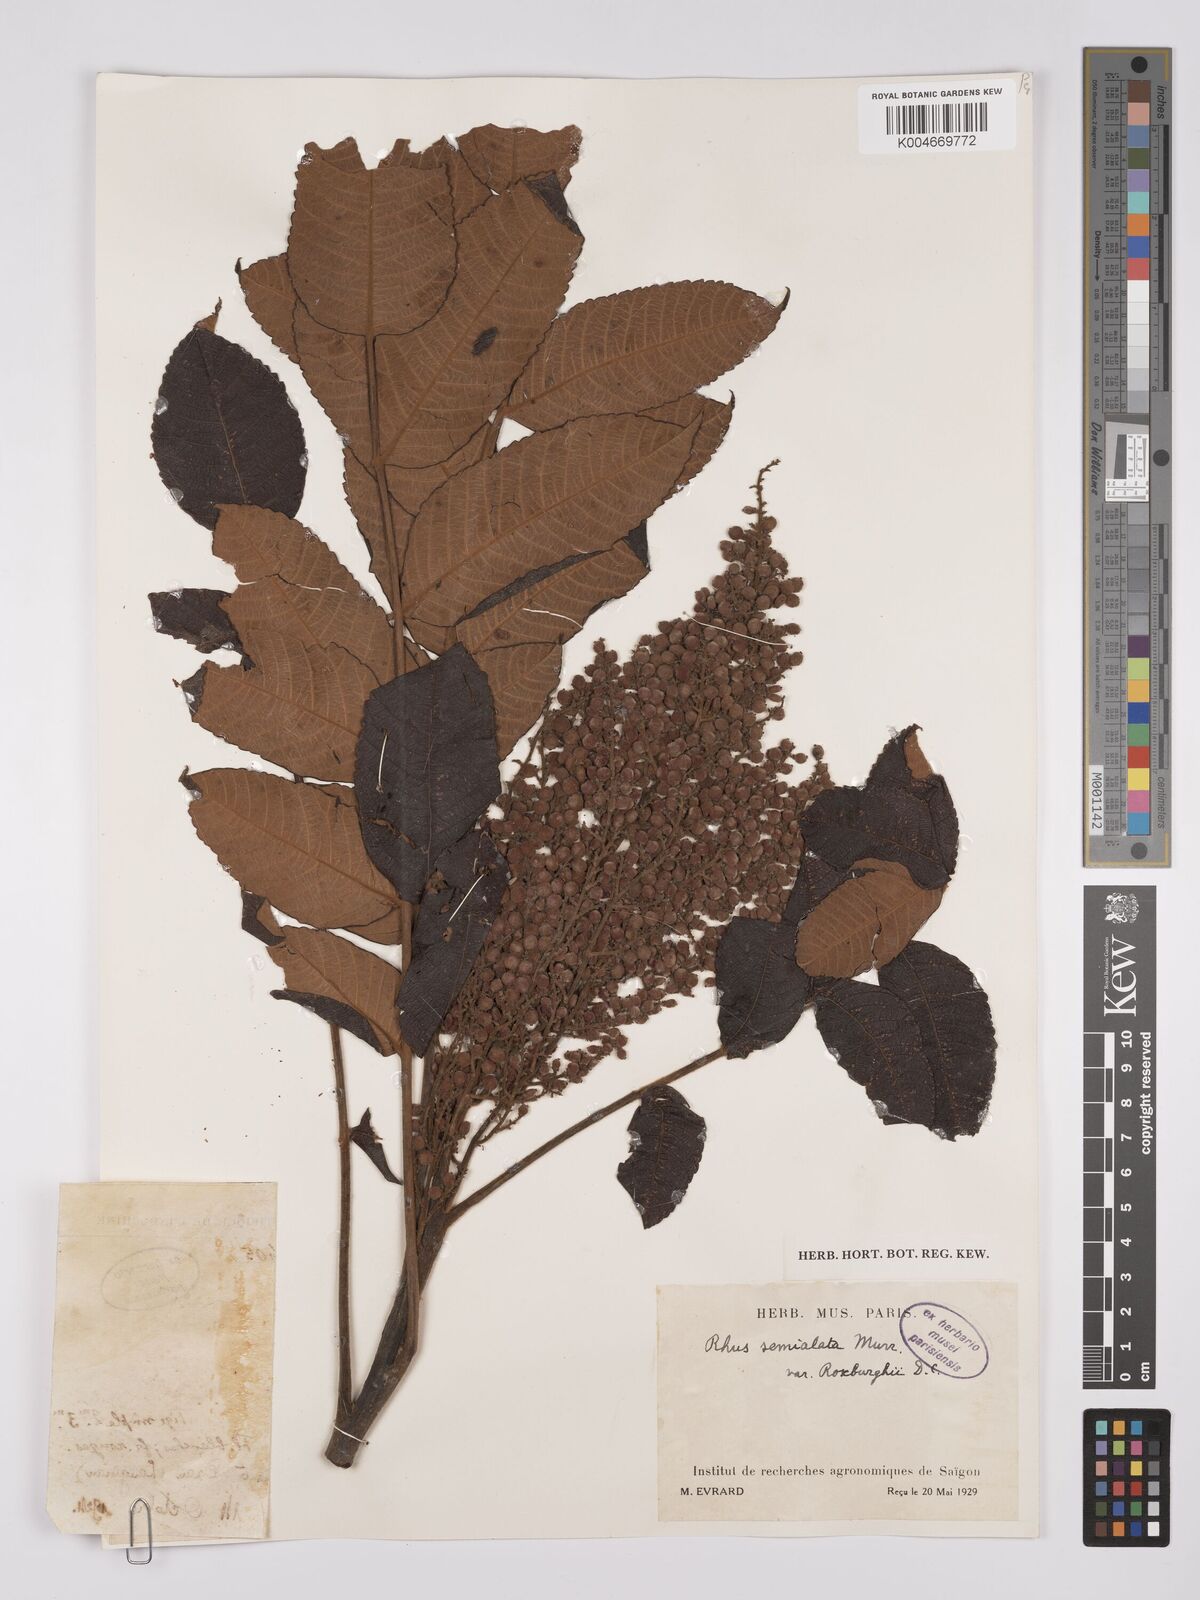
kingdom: Plantae
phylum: Tracheophyta
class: Magnoliopsida
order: Sapindales
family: Anacardiaceae
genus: Rhus
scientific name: Rhus chinensis
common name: Chinese gall
